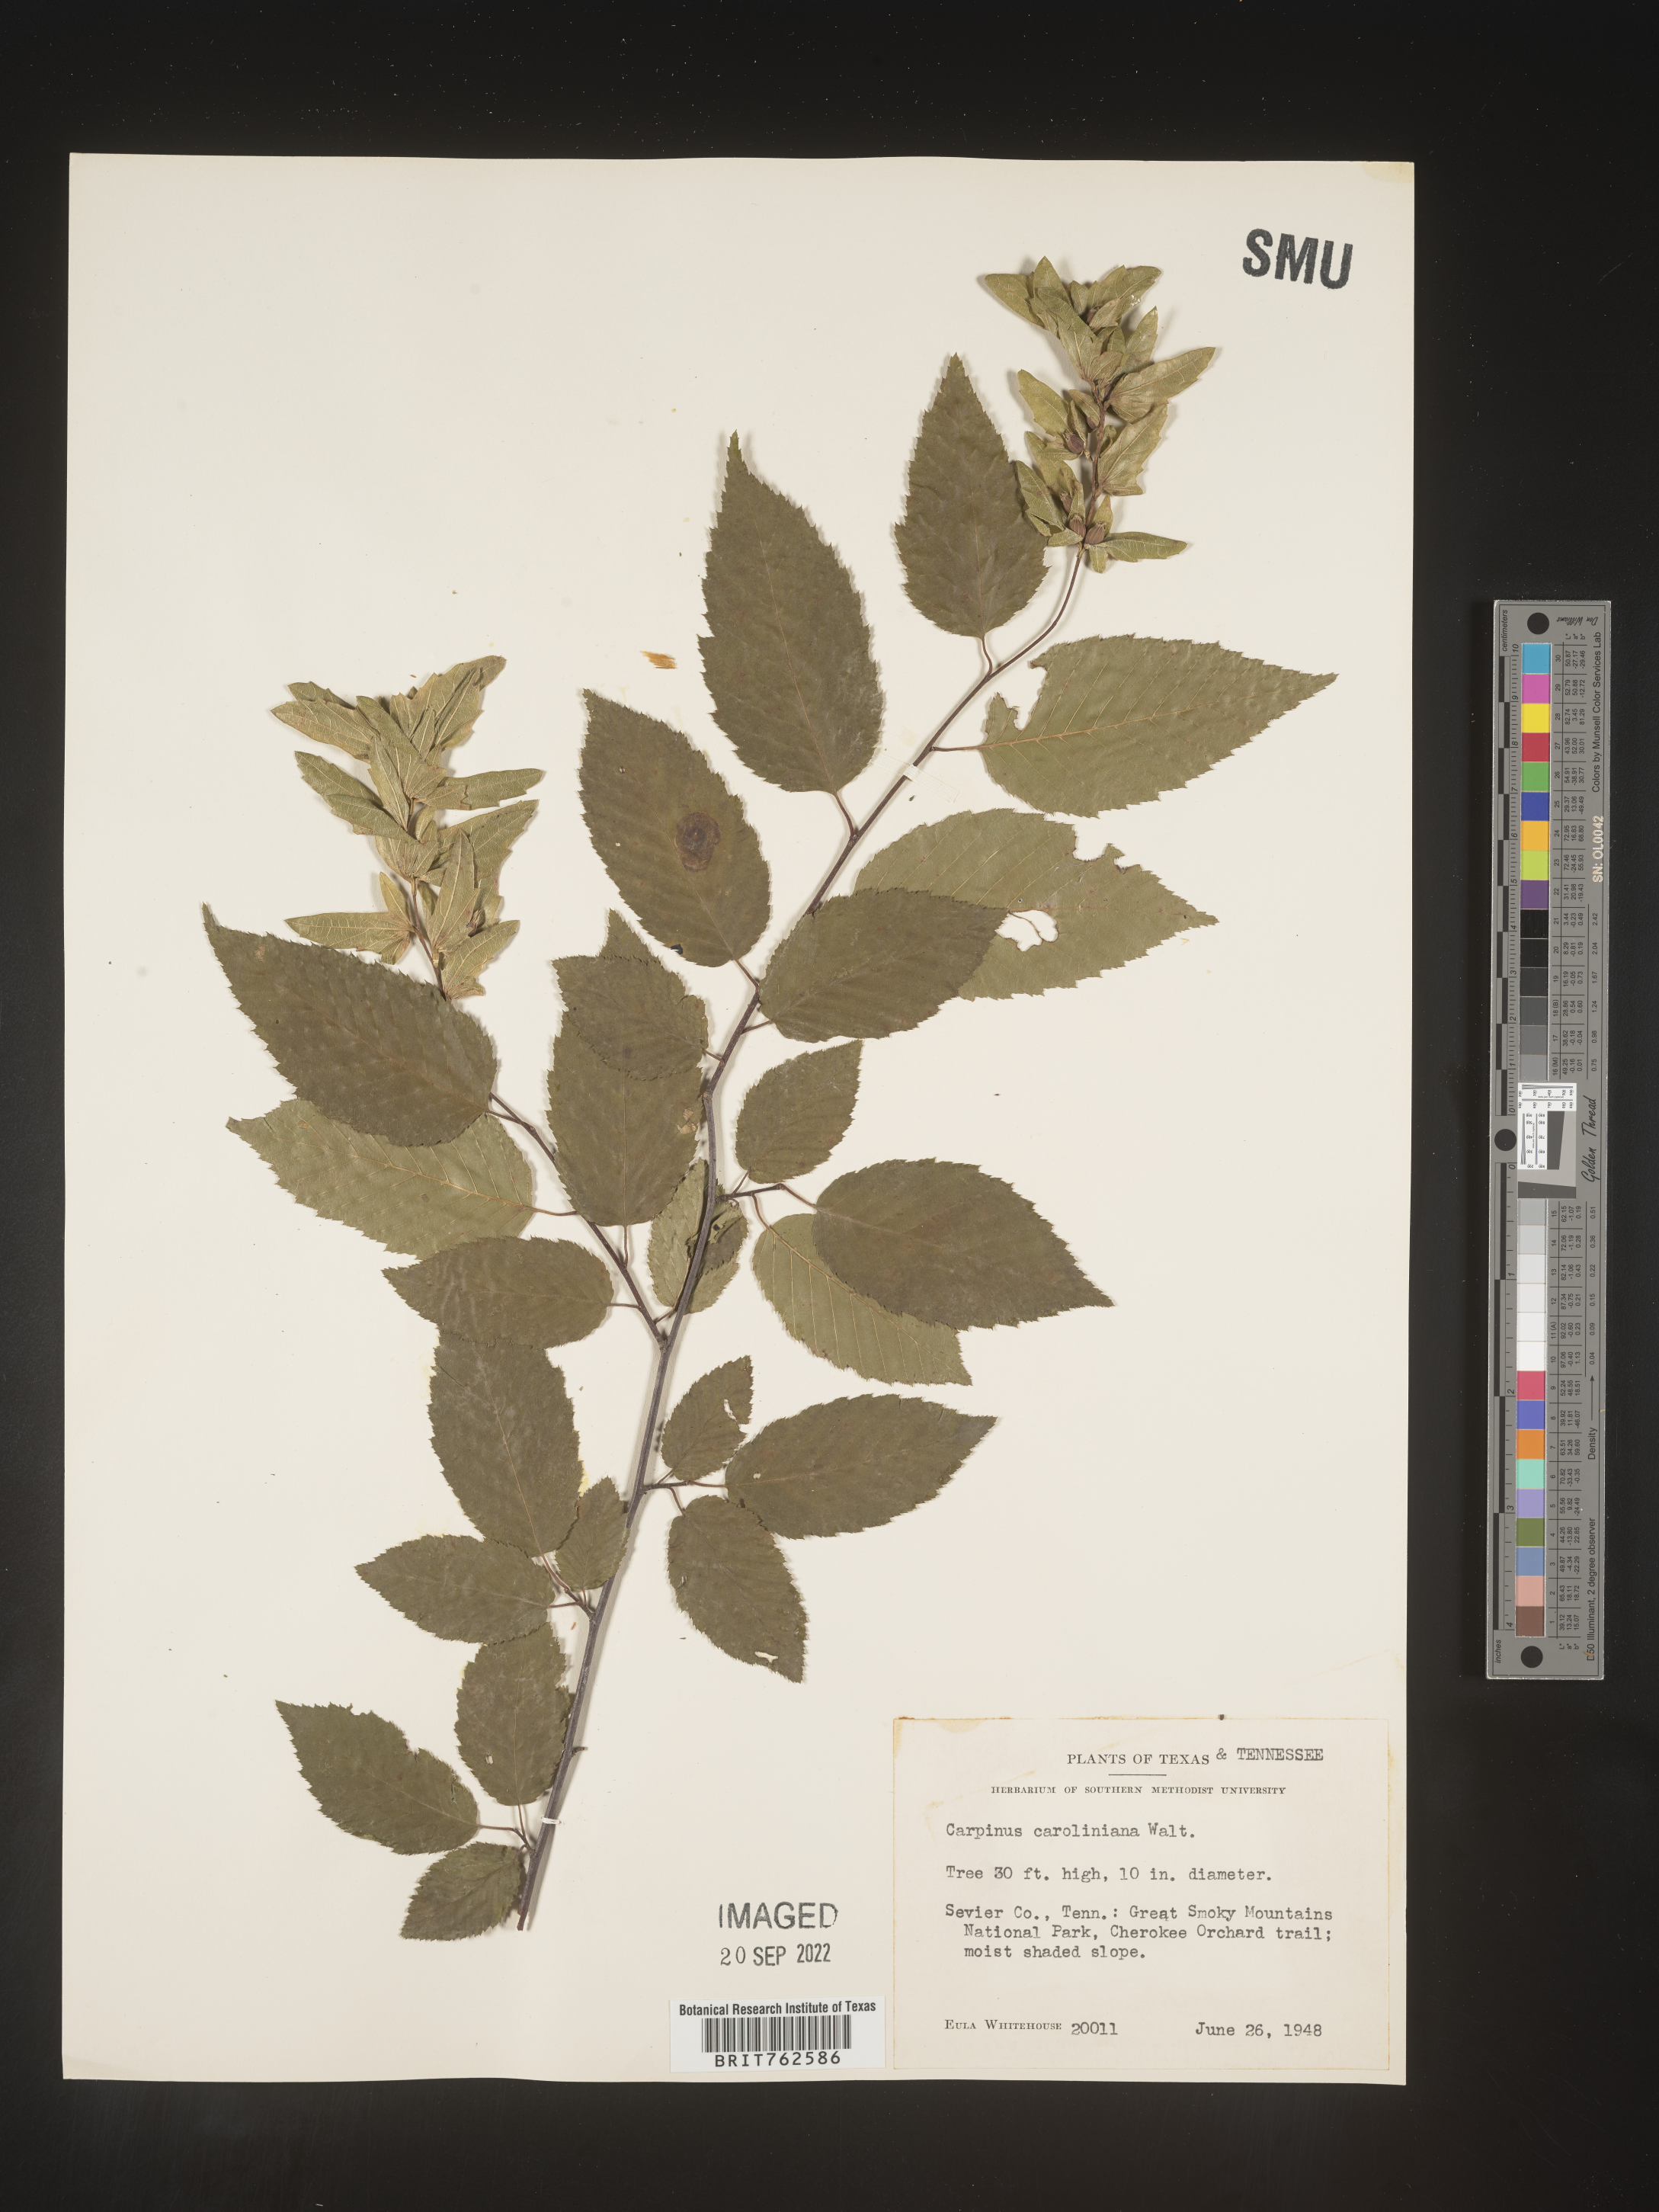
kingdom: Plantae
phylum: Tracheophyta
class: Magnoliopsida
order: Fagales
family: Betulaceae
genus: Carpinus
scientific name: Carpinus caroliniana
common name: American hornbeam
